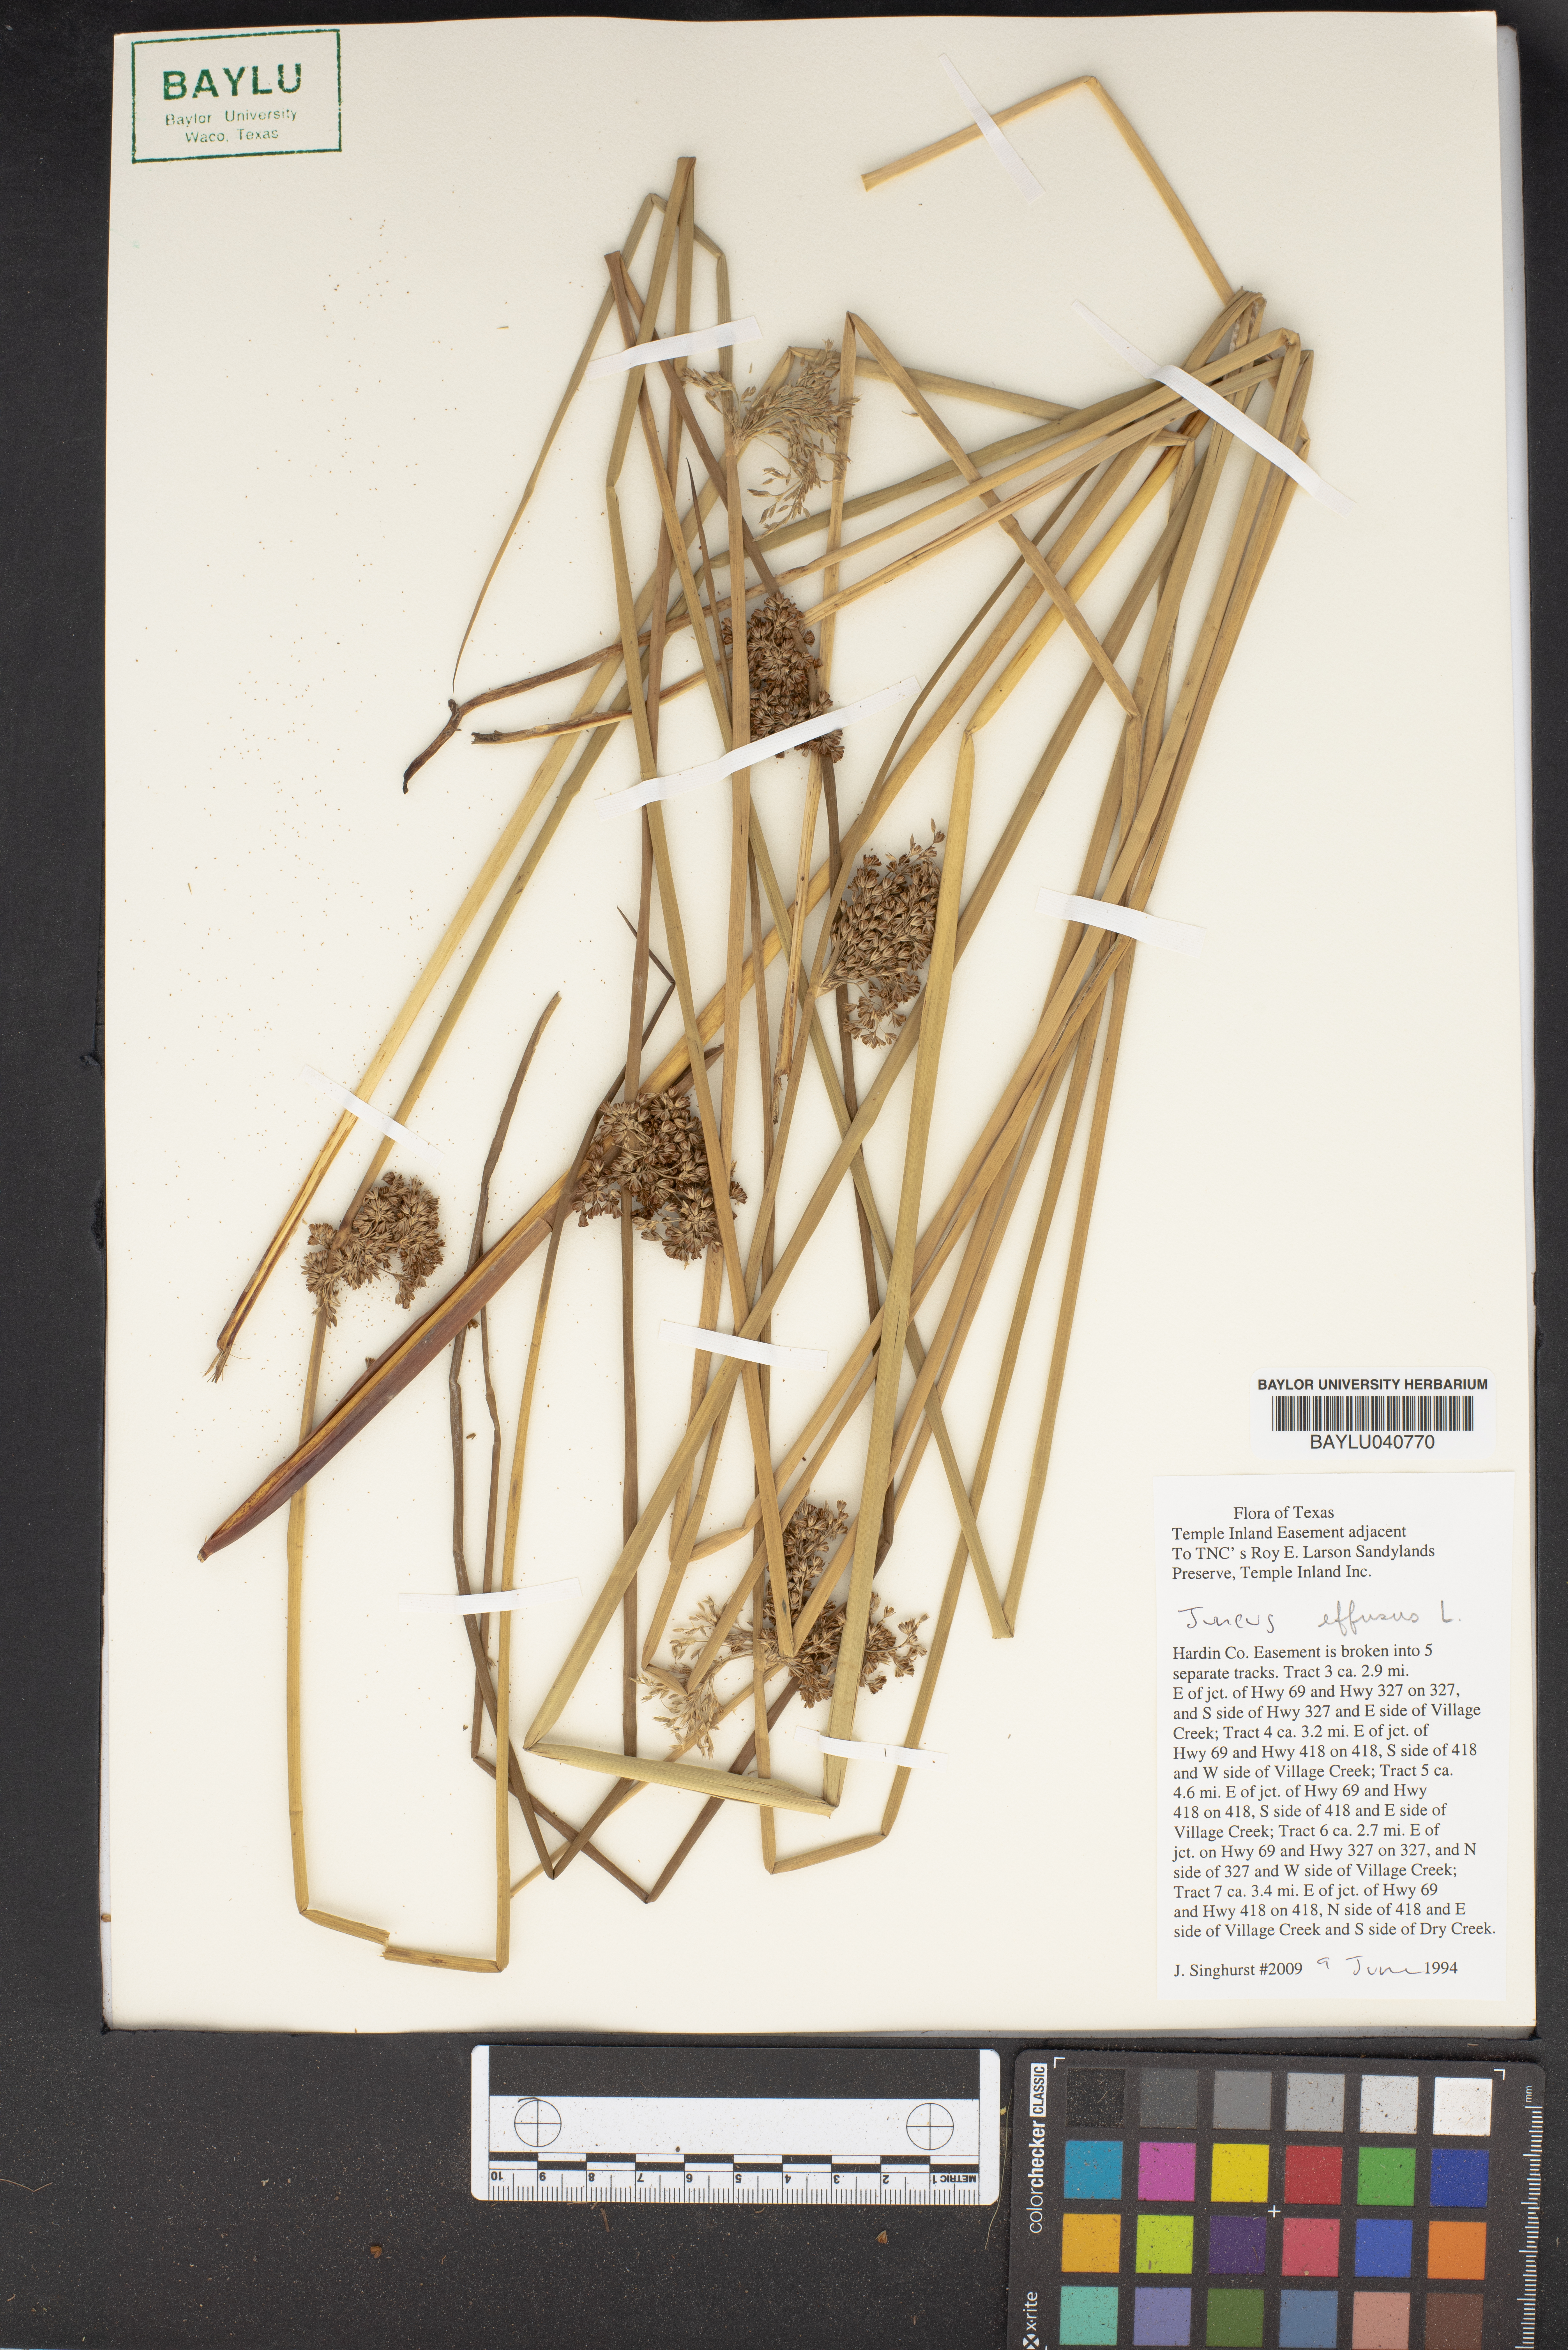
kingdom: Plantae
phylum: Tracheophyta
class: Liliopsida
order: Poales
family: Juncaceae
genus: Juncus
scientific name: Juncus effusus
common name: Soft rush
